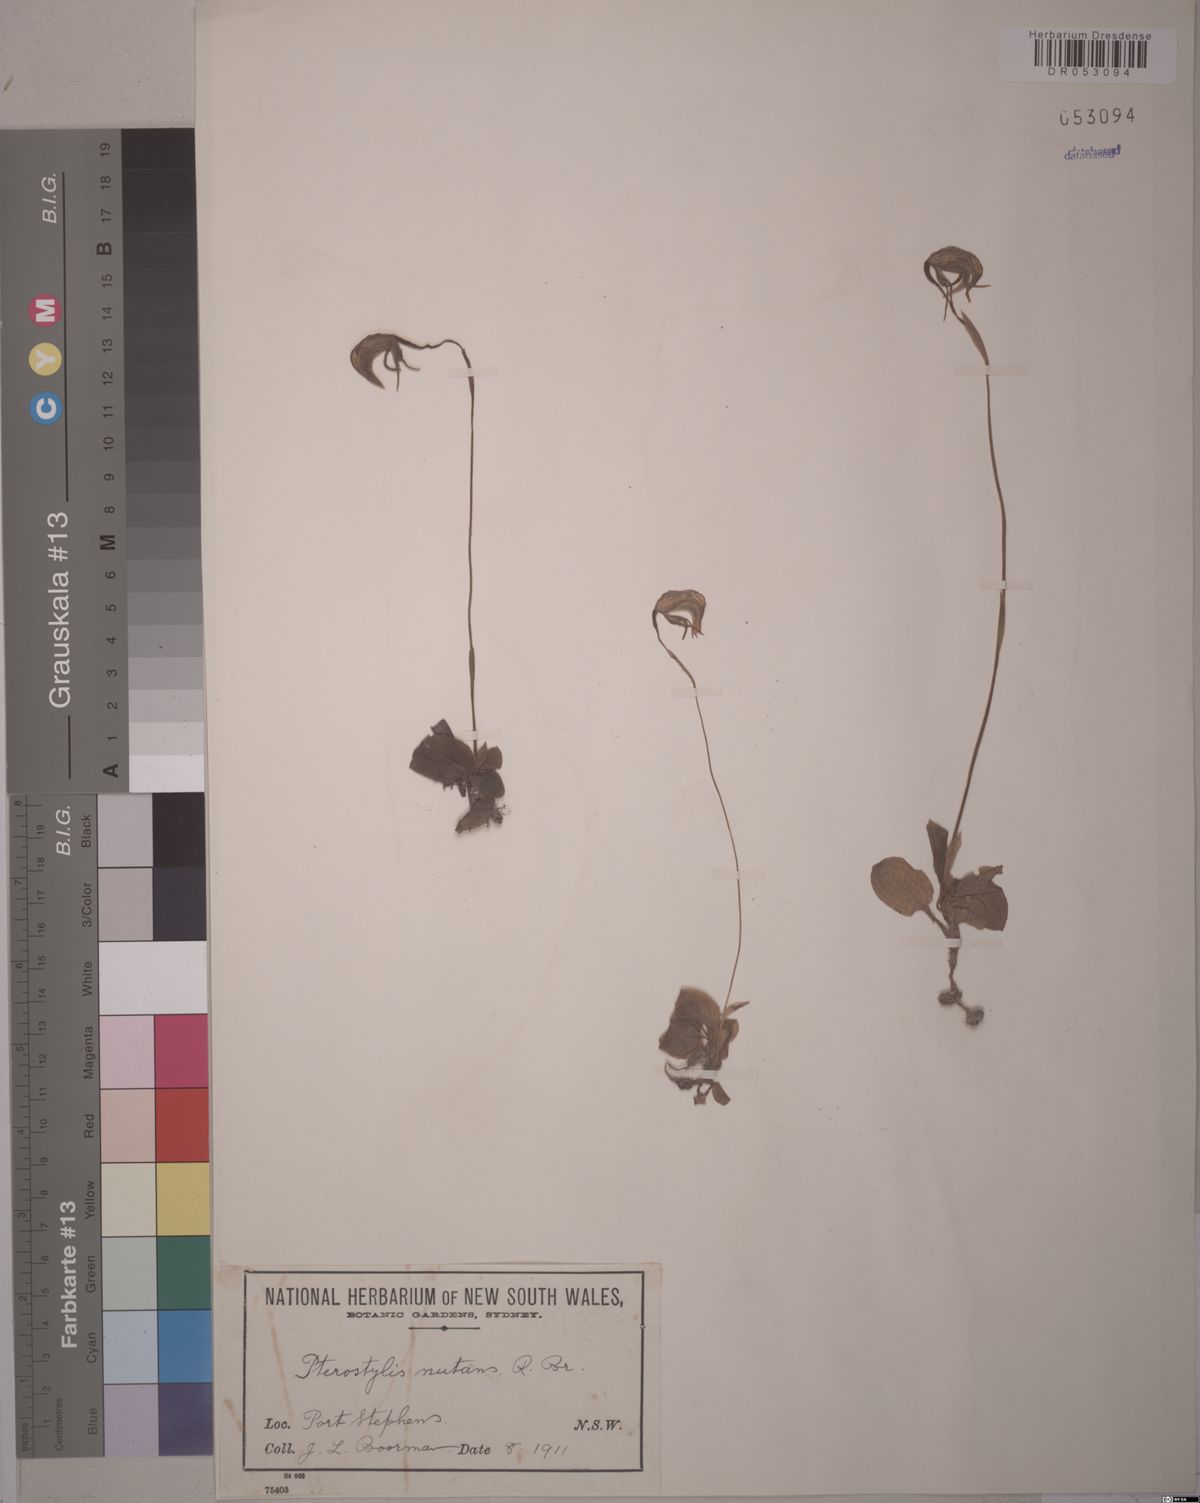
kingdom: Plantae
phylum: Tracheophyta
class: Liliopsida
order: Asparagales
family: Orchidaceae
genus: Pterostylis
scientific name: Pterostylis nutans
